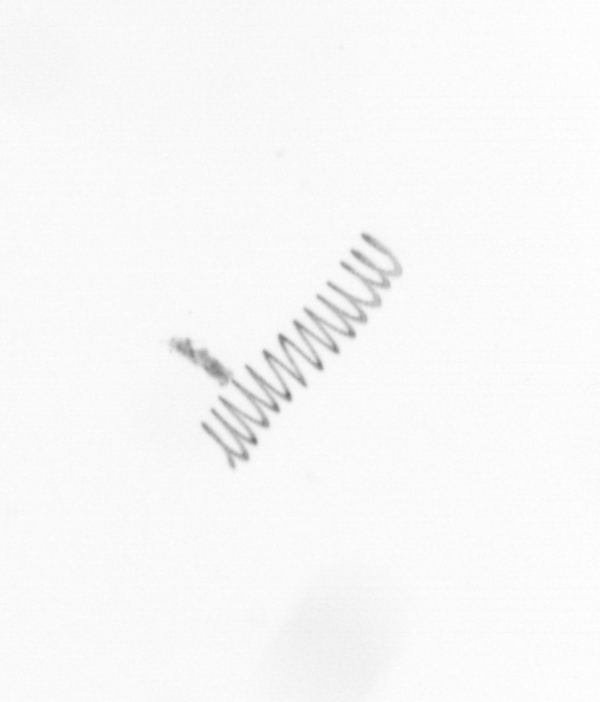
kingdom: Chromista
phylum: Ochrophyta
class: Bacillariophyceae
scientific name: Bacillariophyceae
